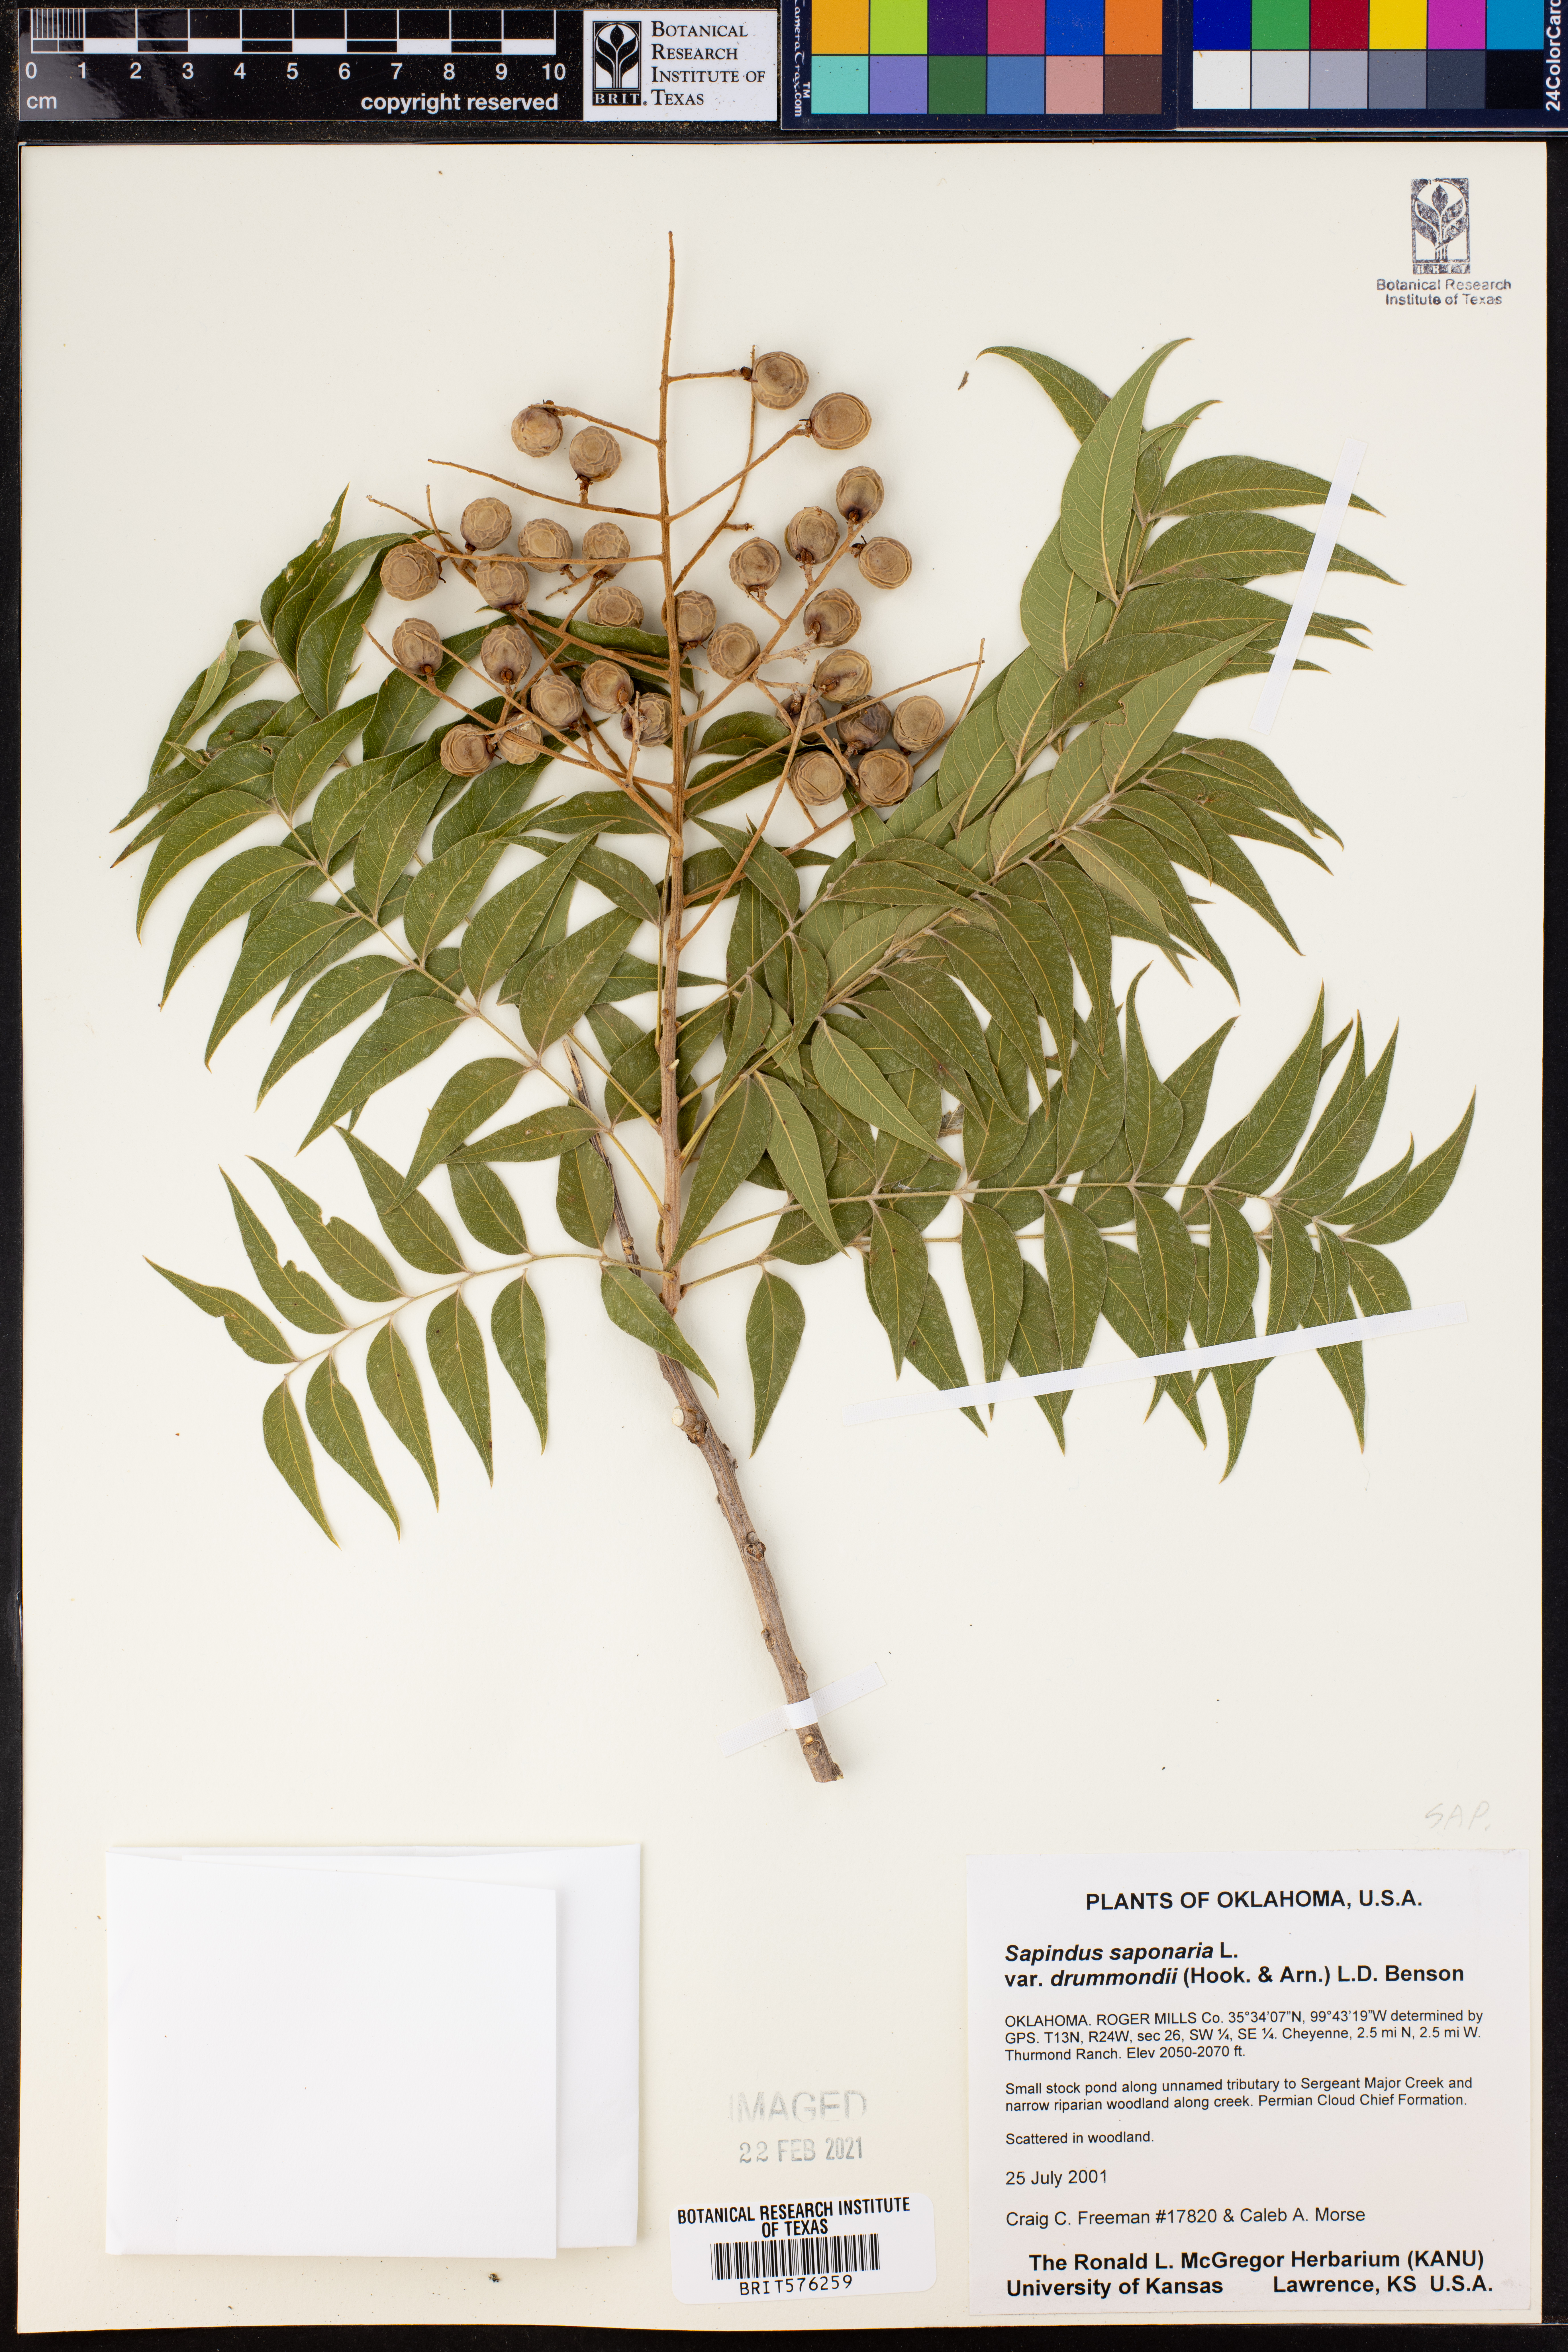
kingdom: Plantae
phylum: Tracheophyta
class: Magnoliopsida
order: Sapindales
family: Sapindaceae
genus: Sapindus
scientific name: Sapindus drummondii
